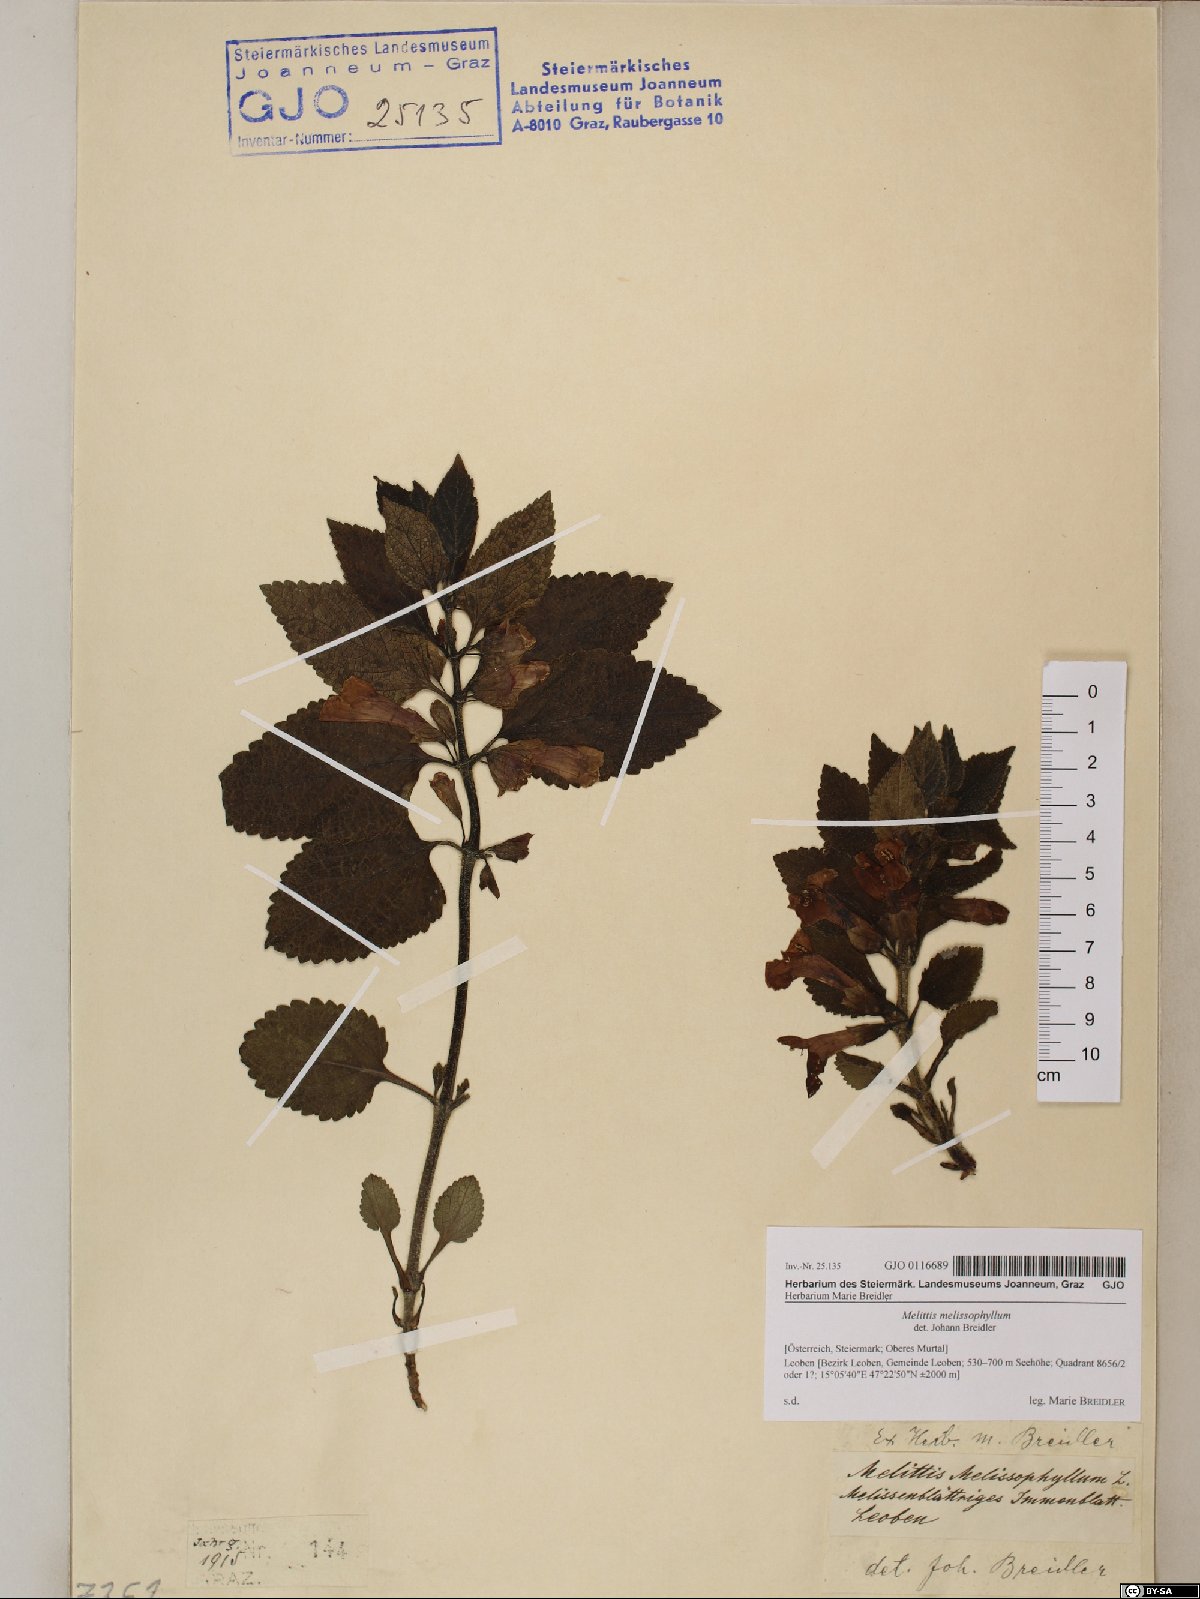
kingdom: Plantae
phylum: Tracheophyta
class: Magnoliopsida
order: Lamiales
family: Lamiaceae
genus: Melittis
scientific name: Melittis melissophyllum
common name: Bastard balm
